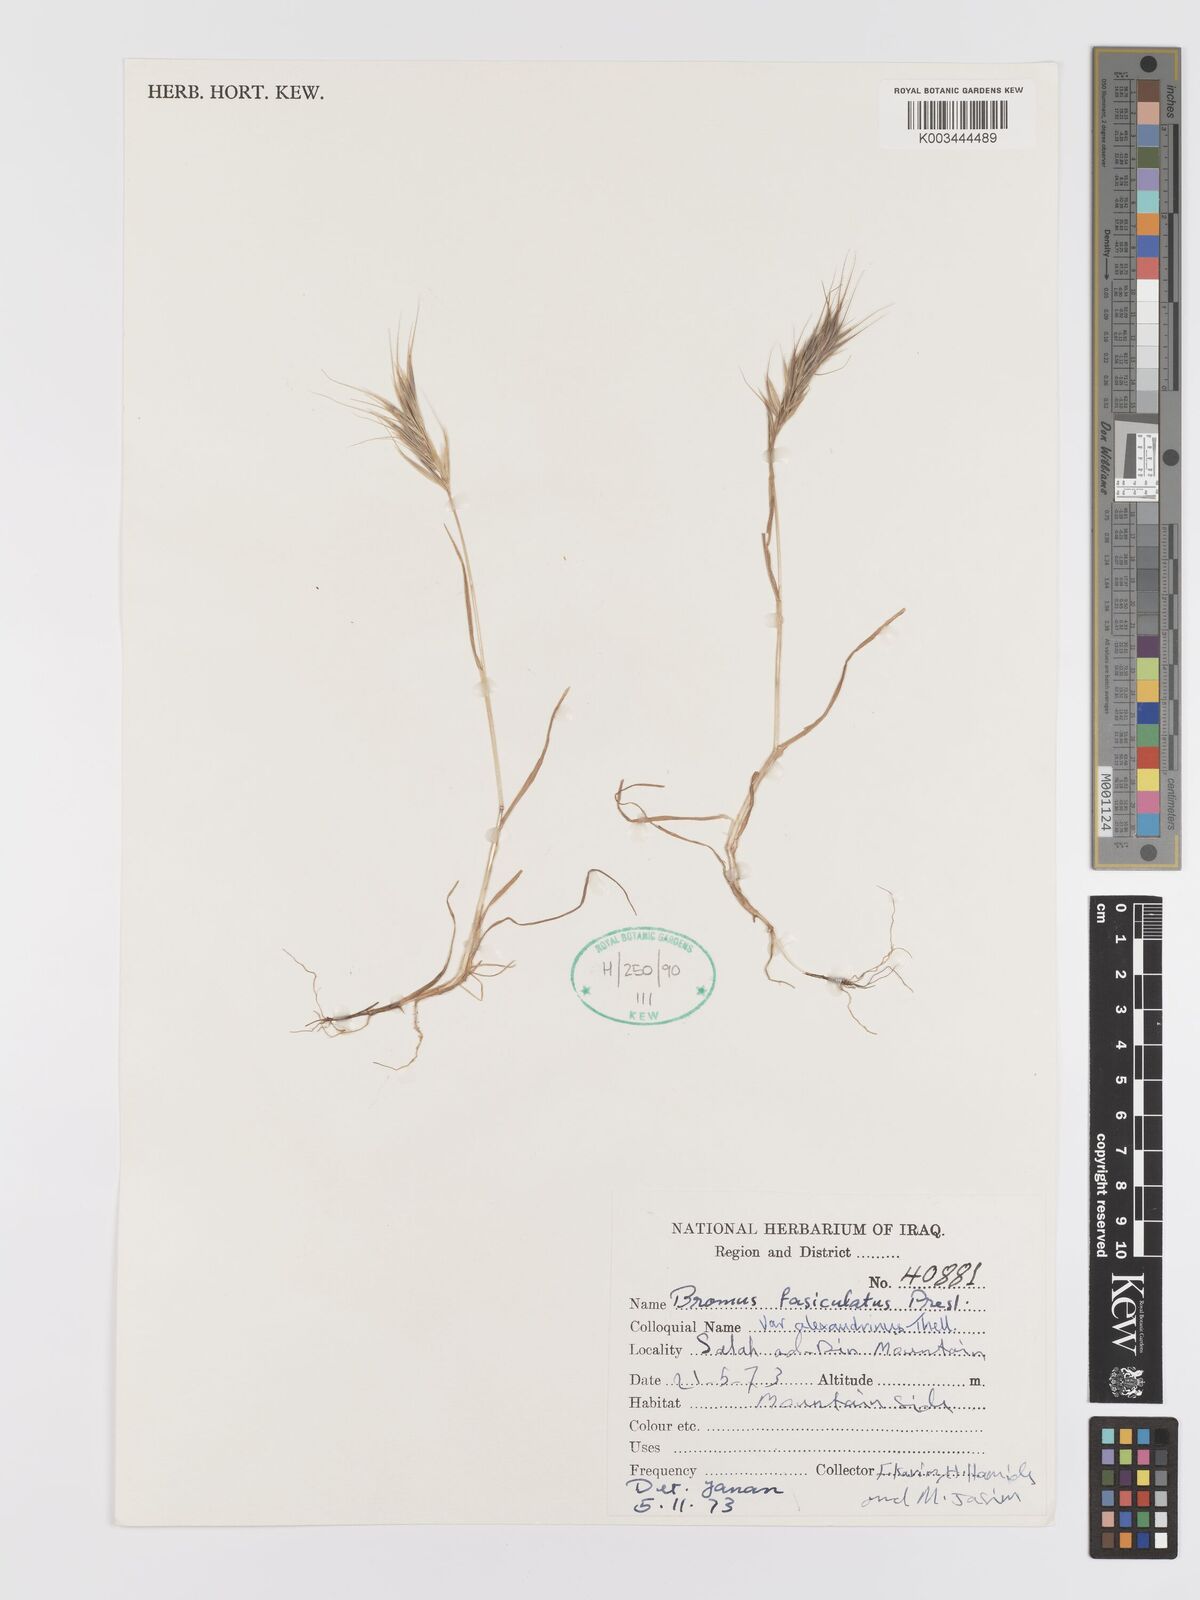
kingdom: Plantae
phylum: Tracheophyta
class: Liliopsida
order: Poales
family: Poaceae
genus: Bromus
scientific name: Bromus fasciculatus
